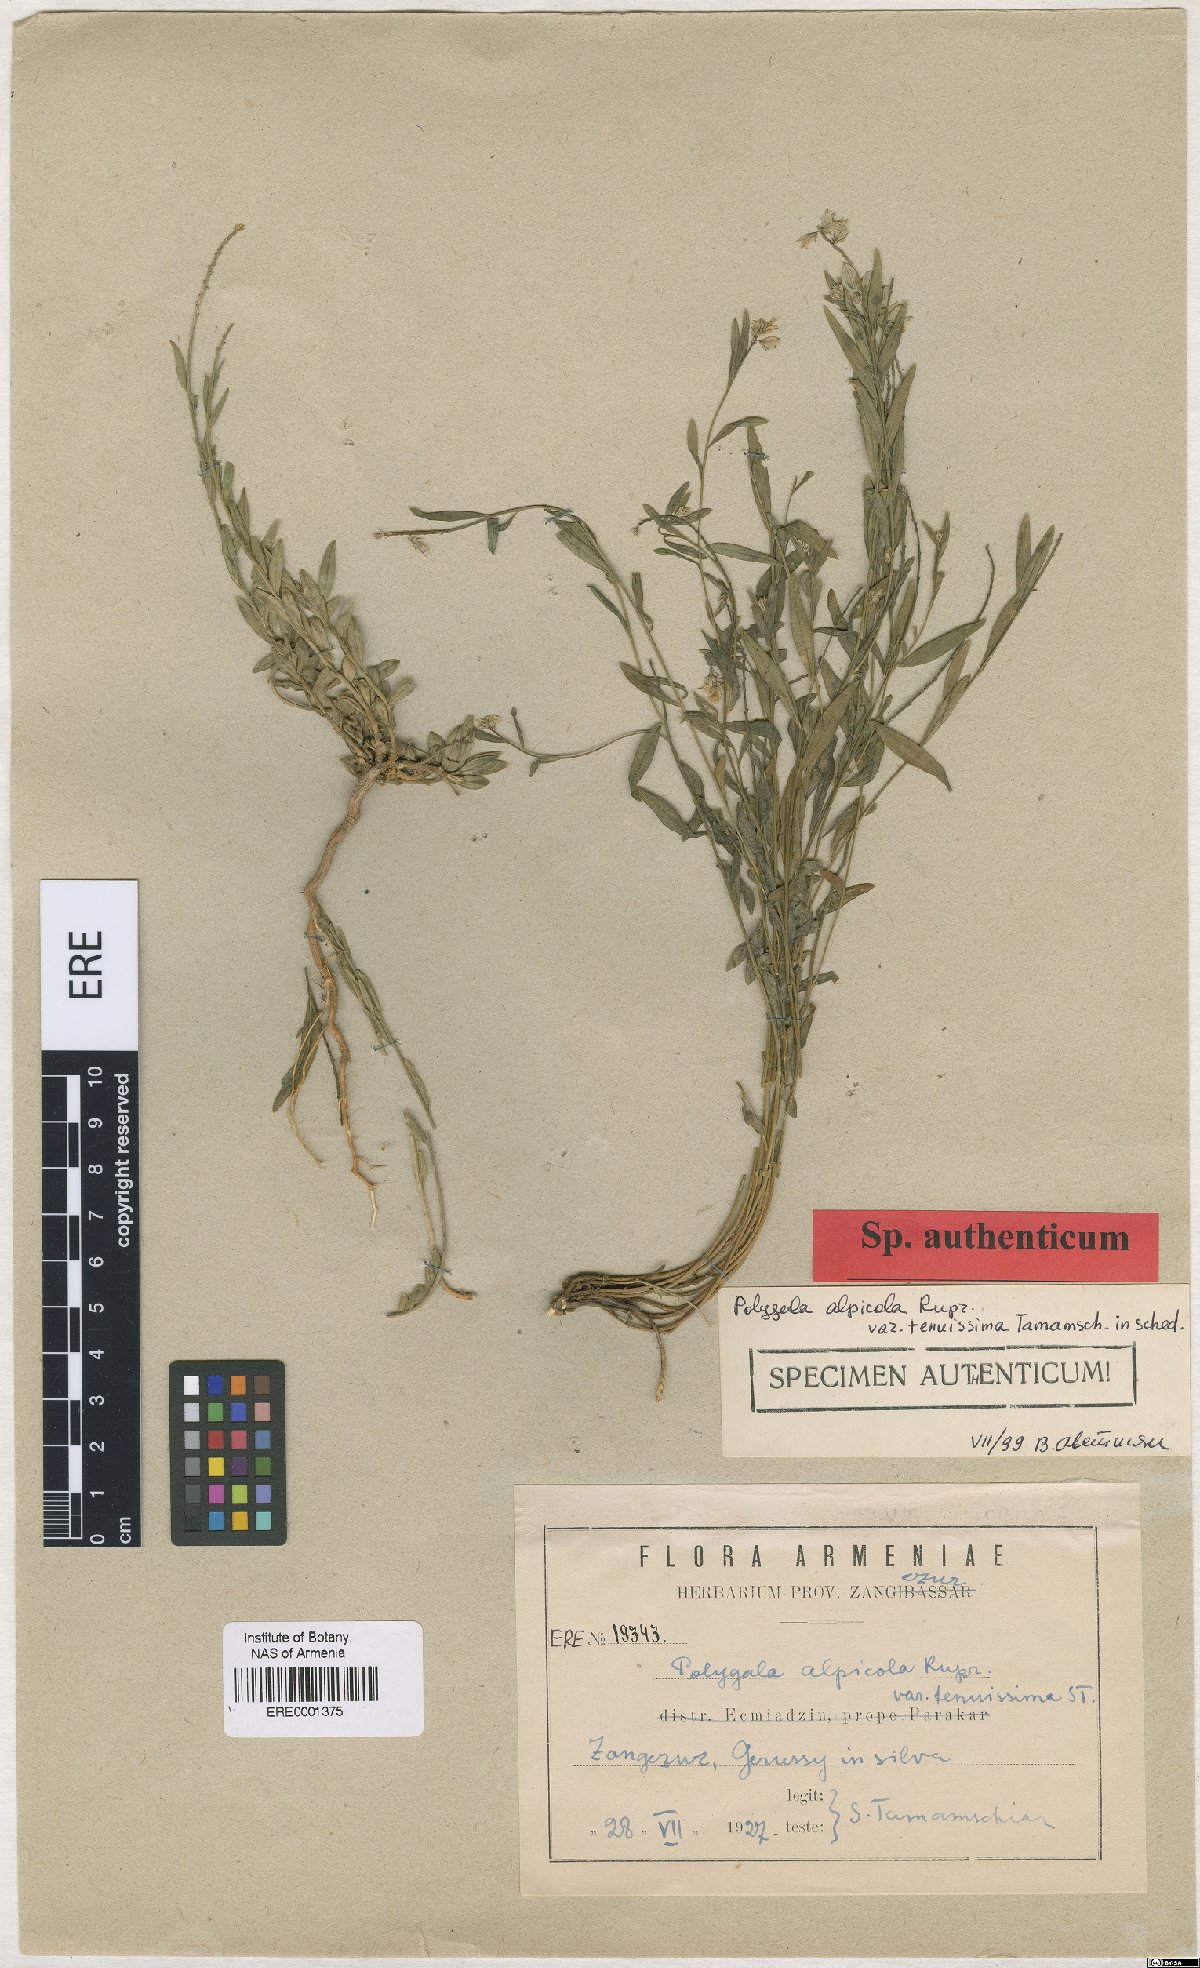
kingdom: Plantae
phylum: Tracheophyta
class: Magnoliopsida
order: Fabales
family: Polygalaceae
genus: Polygala
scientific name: Polygala alpicola
